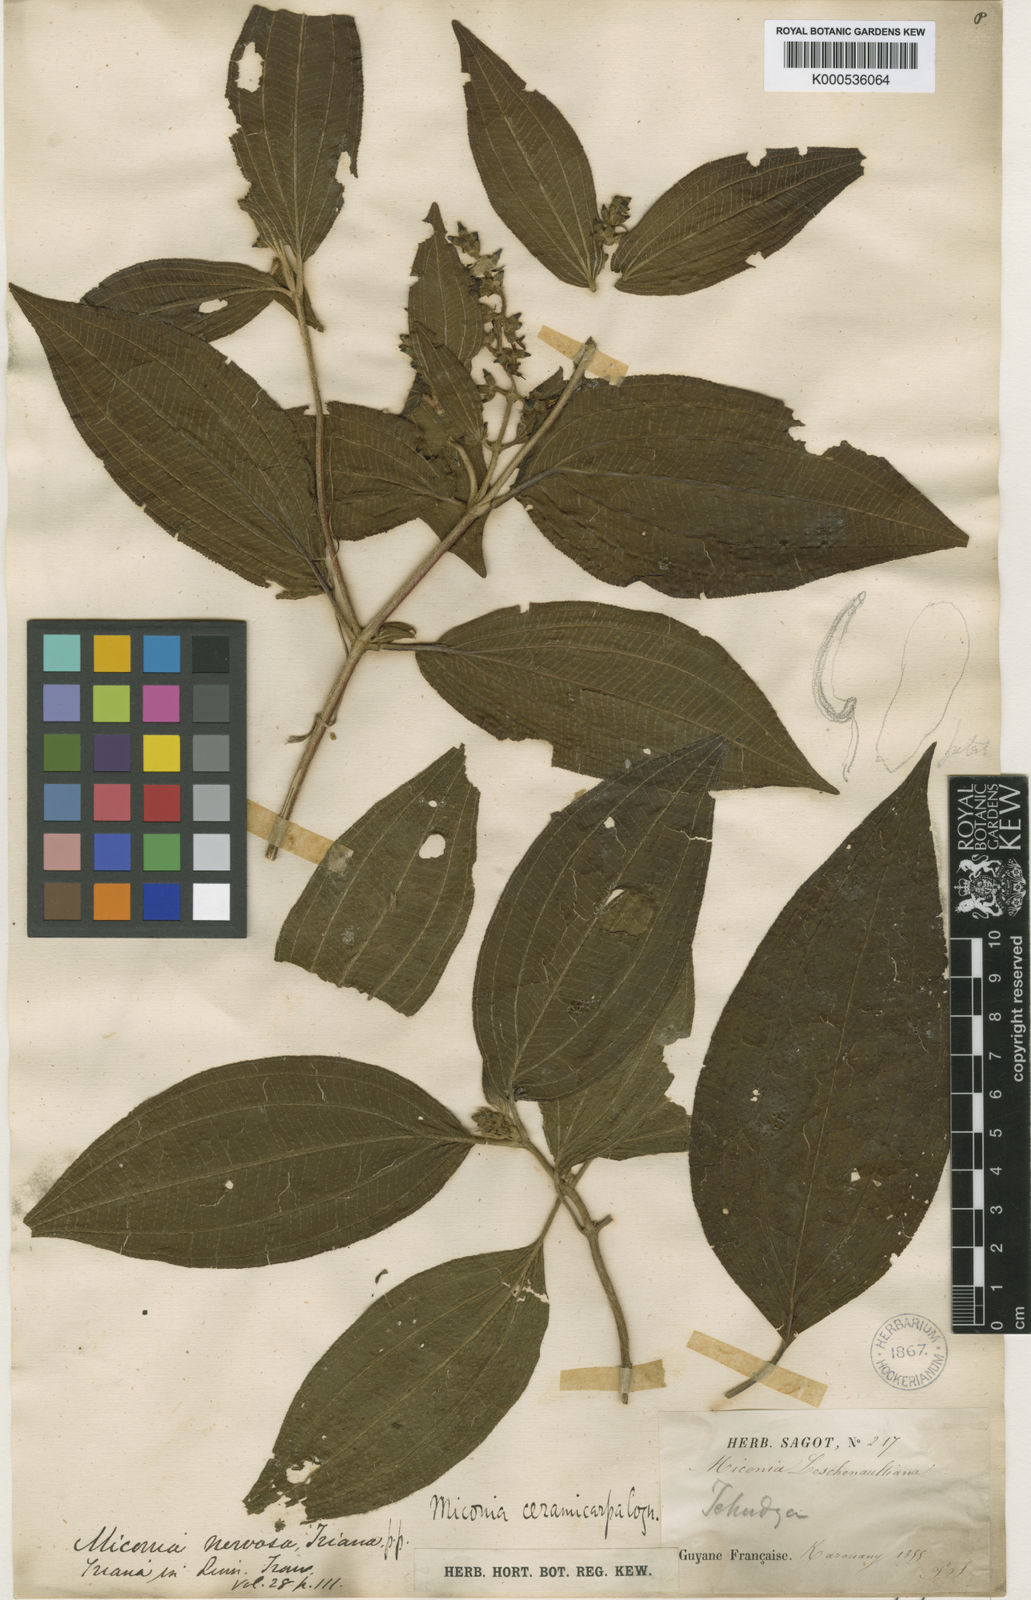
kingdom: Plantae
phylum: Tracheophyta
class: Magnoliopsida
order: Myrtales
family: Melastomataceae
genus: Miconia
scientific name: Miconia ceramicarpa
